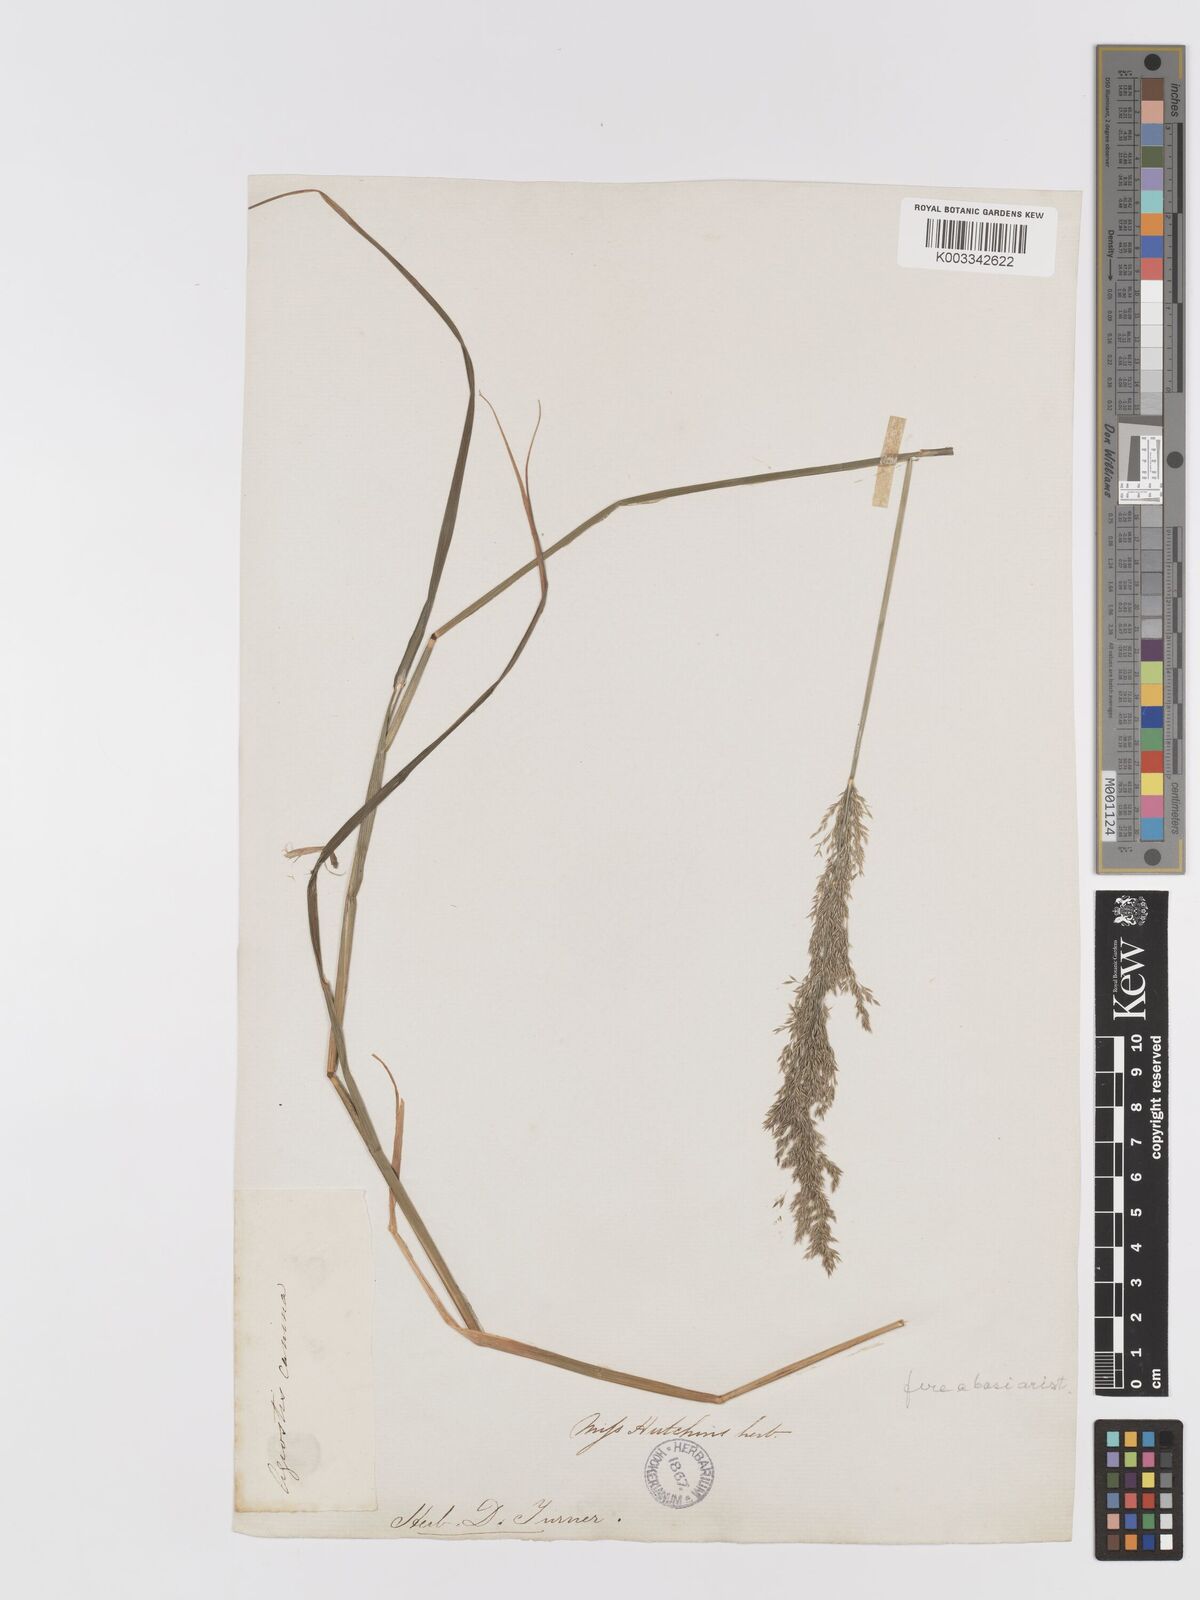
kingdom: Plantae
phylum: Tracheophyta
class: Liliopsida
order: Poales
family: Poaceae
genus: Agrostis
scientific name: Agrostis
